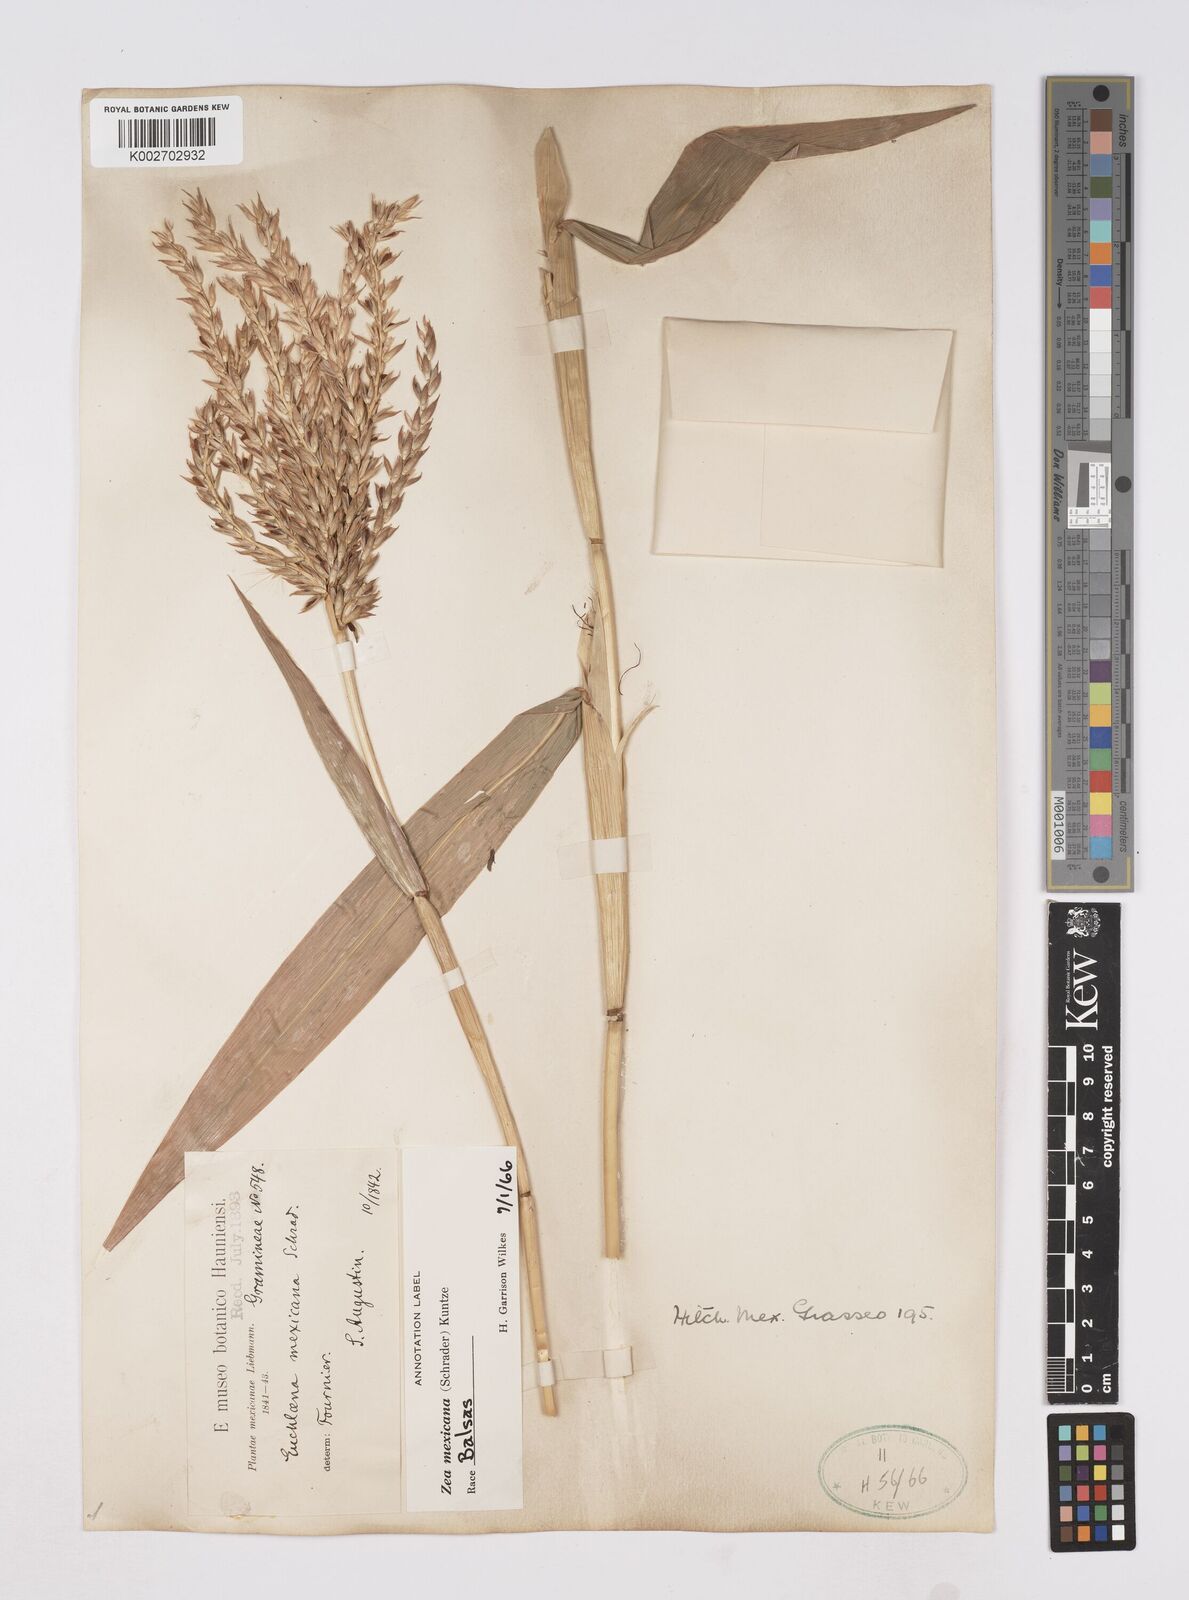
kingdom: Plantae
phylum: Tracheophyta
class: Liliopsida
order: Poales
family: Poaceae
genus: Zea
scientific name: Zea mexicana
